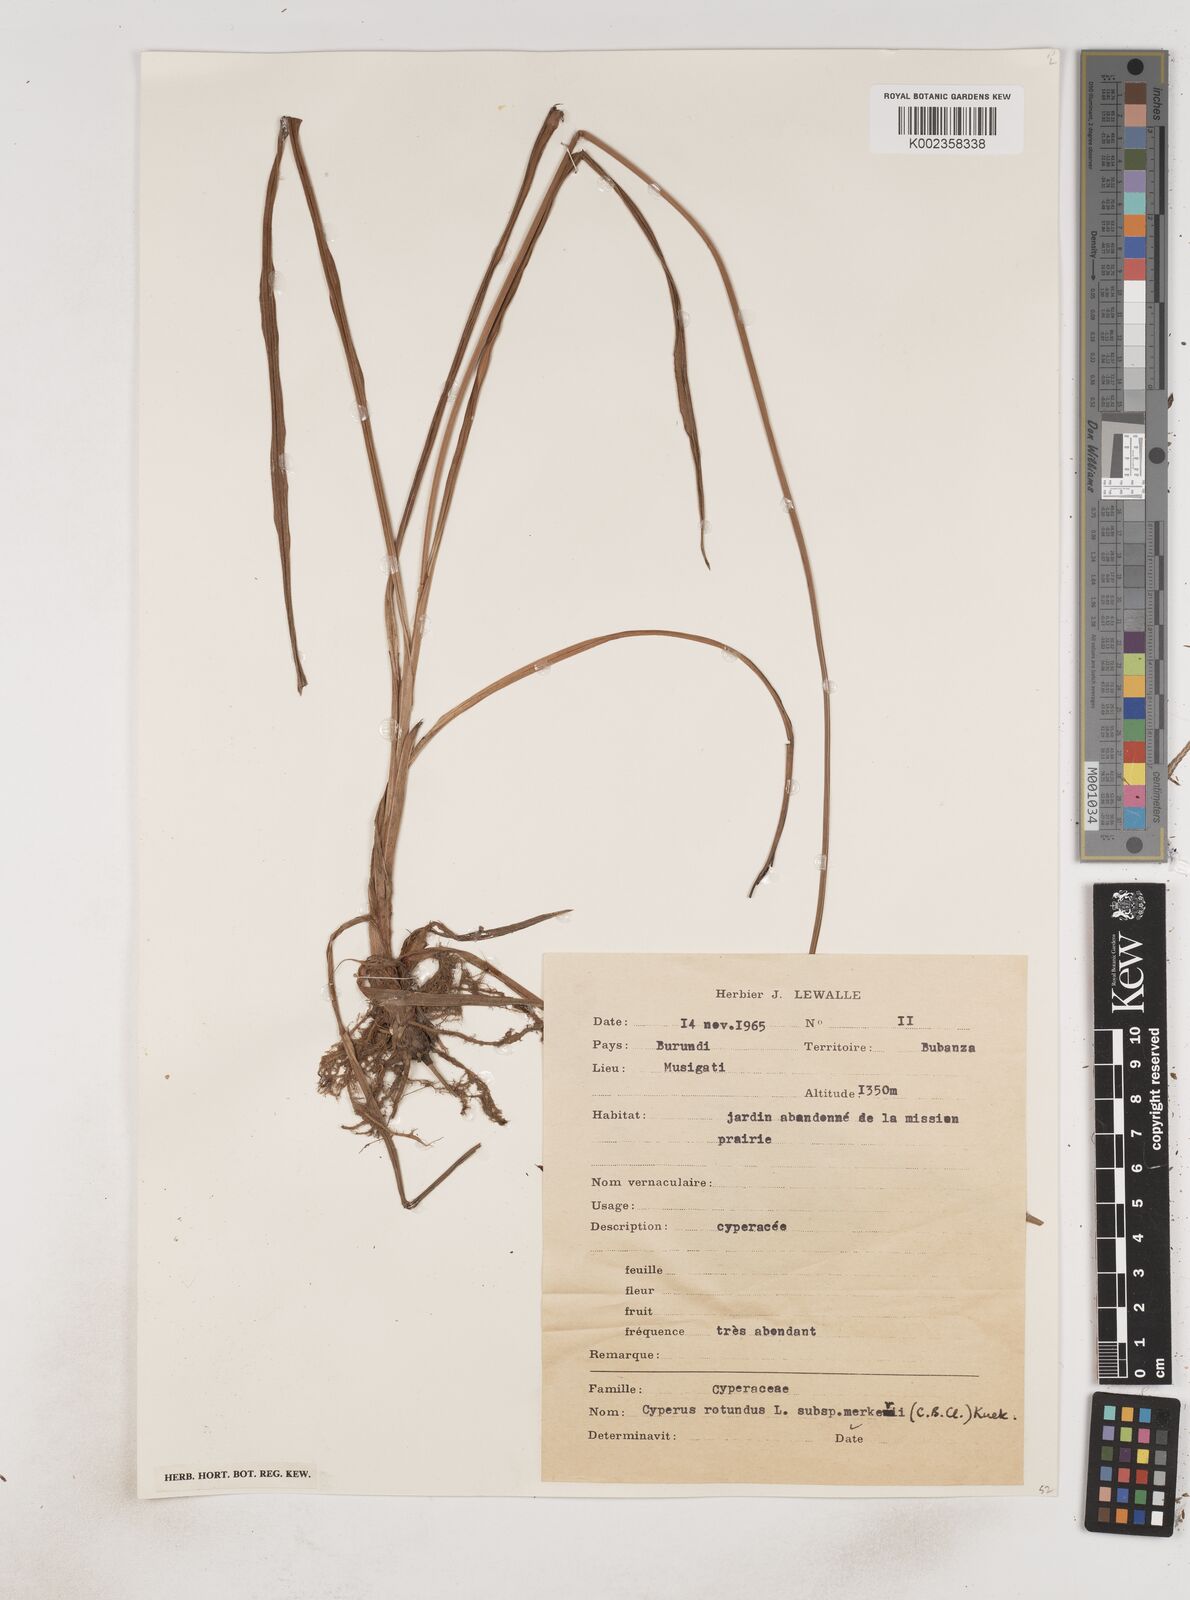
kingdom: Plantae
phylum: Tracheophyta
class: Liliopsida
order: Poales
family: Cyperaceae
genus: Cyperus
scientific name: Cyperus tuberosus
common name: Nut grass
